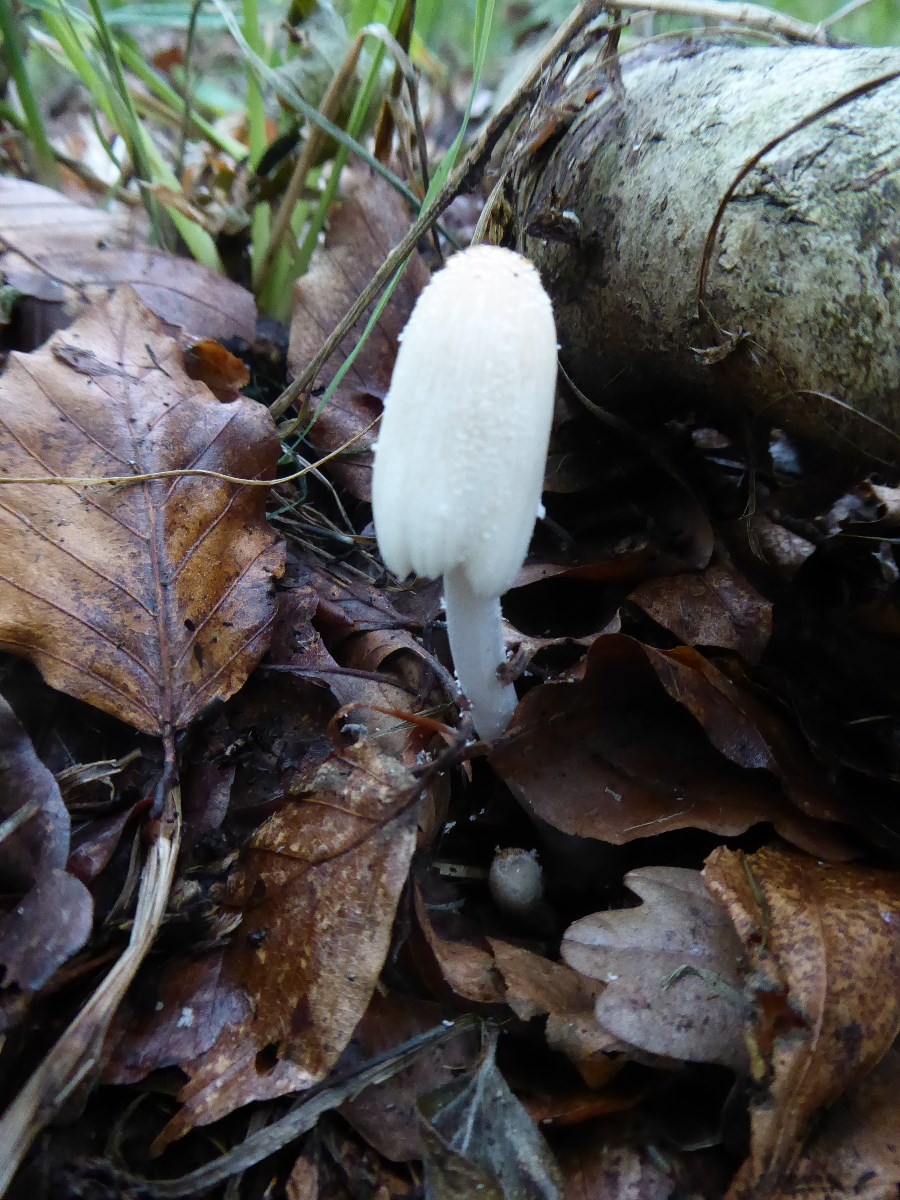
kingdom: Fungi
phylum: Basidiomycota
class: Agaricomycetes
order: Agaricales
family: Psathyrellaceae
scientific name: Psathyrellaceae
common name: mørkhatfamilien
